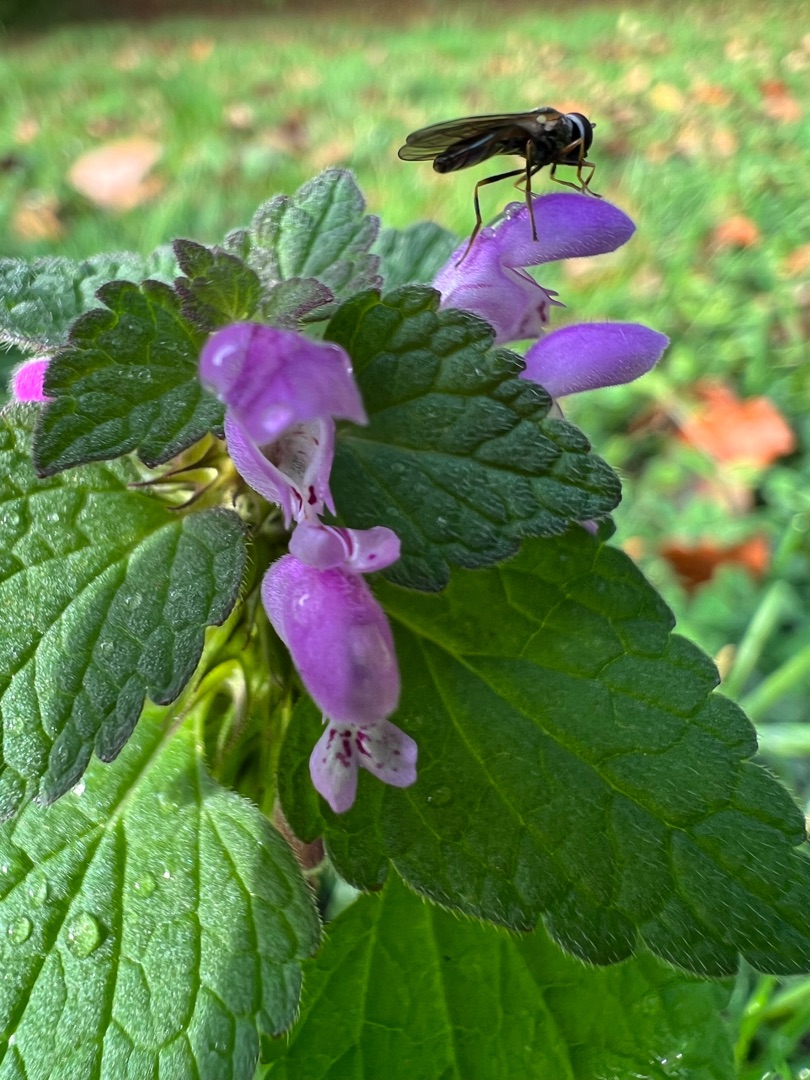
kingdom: Plantae
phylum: Tracheophyta
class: Magnoliopsida
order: Lamiales
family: Lamiaceae
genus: Lamium
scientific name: Lamium purpureum
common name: Rød tvetand
